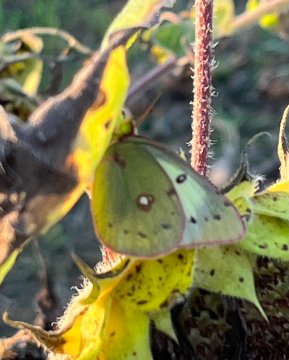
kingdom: Animalia
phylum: Arthropoda
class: Insecta
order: Lepidoptera
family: Pieridae
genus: Colias
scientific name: Colias philodice
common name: Clouded Sulphur
